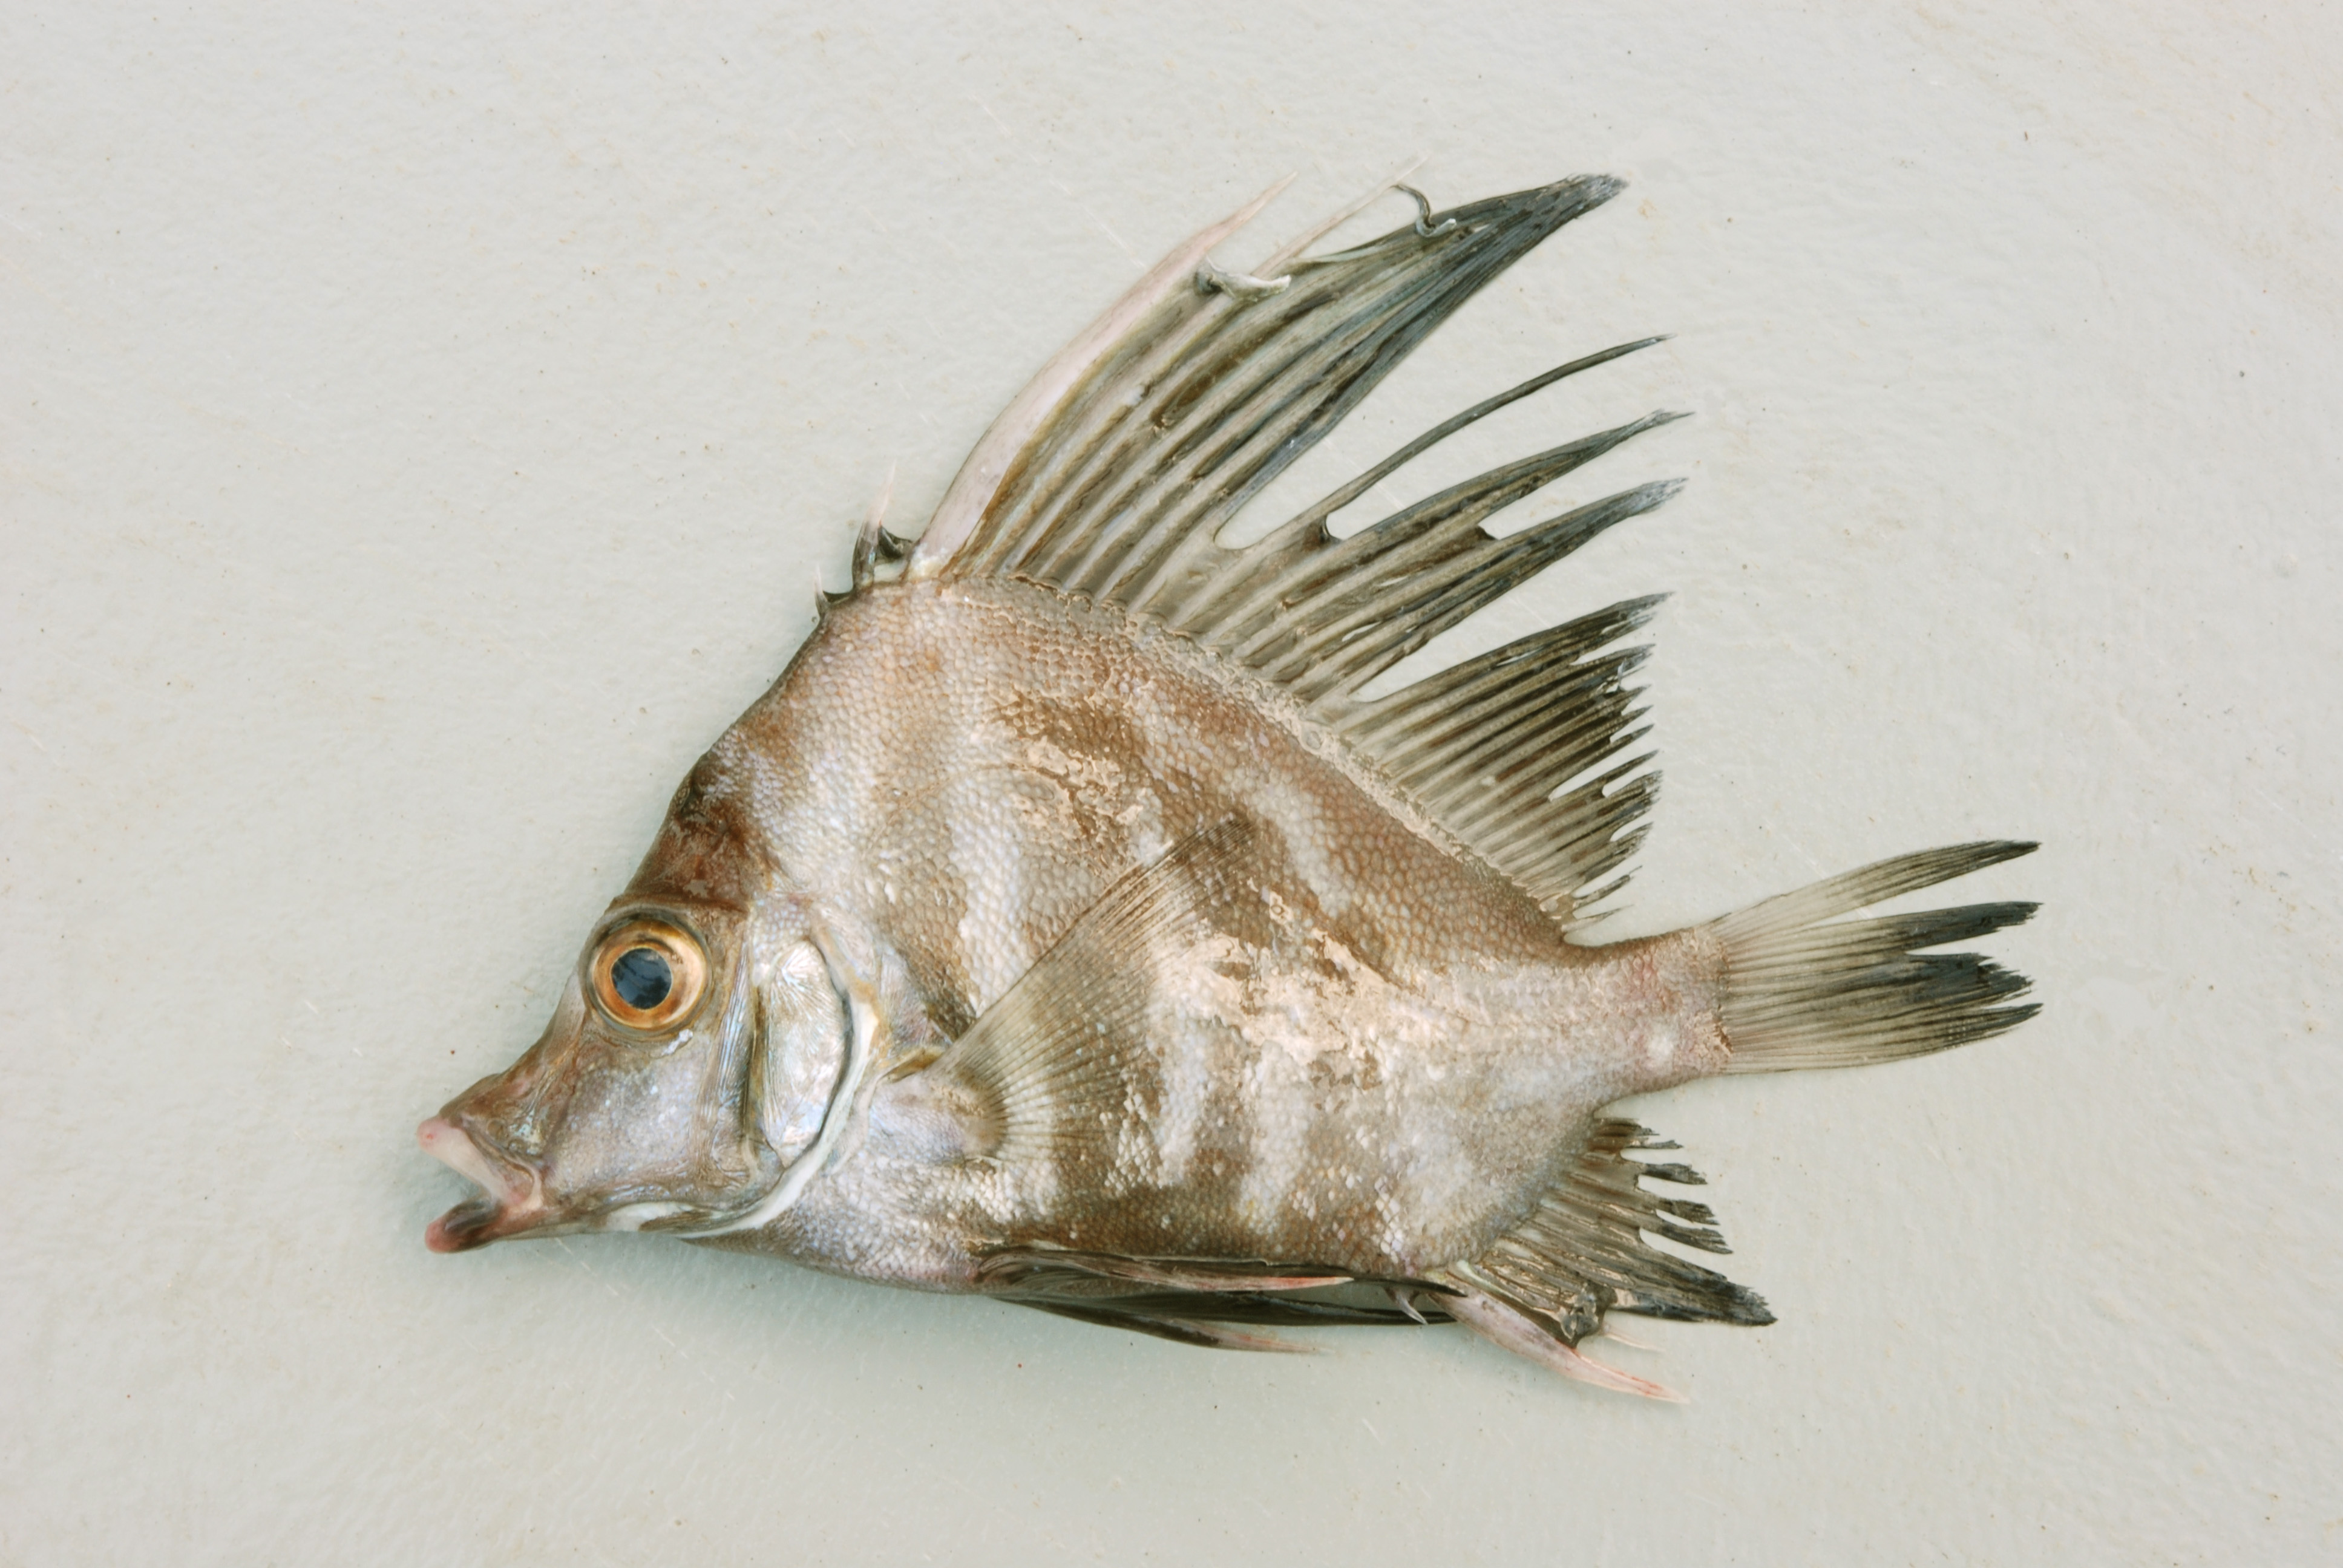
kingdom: Animalia
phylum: Chordata
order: Perciformes
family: Pentacerotidae
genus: Histiopterus
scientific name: Histiopterus typus
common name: Sailfin armourhead
